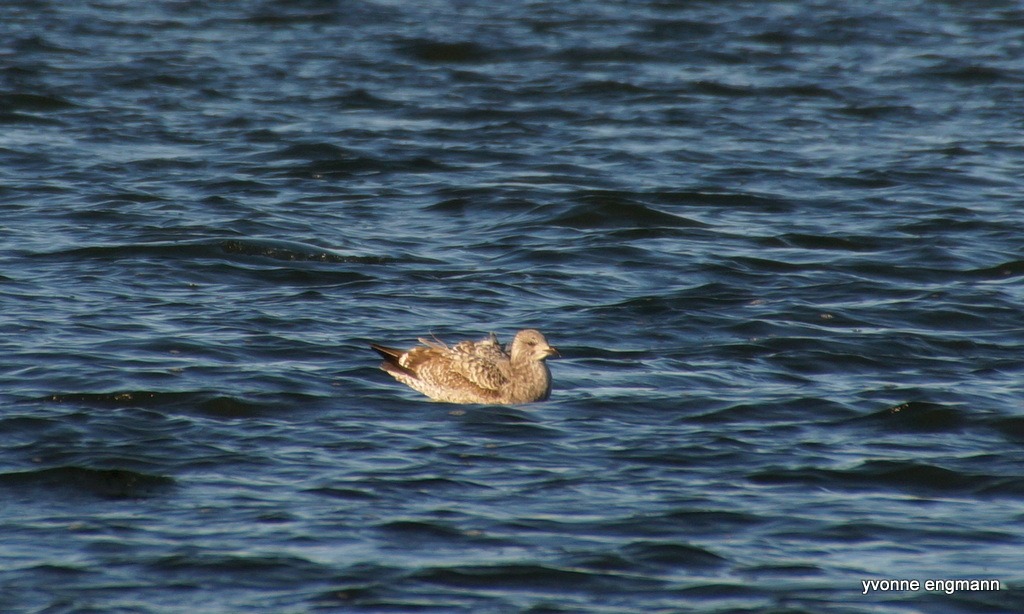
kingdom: Animalia
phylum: Chordata
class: Aves
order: Charadriiformes
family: Laridae
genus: Larus
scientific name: Larus argentatus
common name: Sølvmåge
